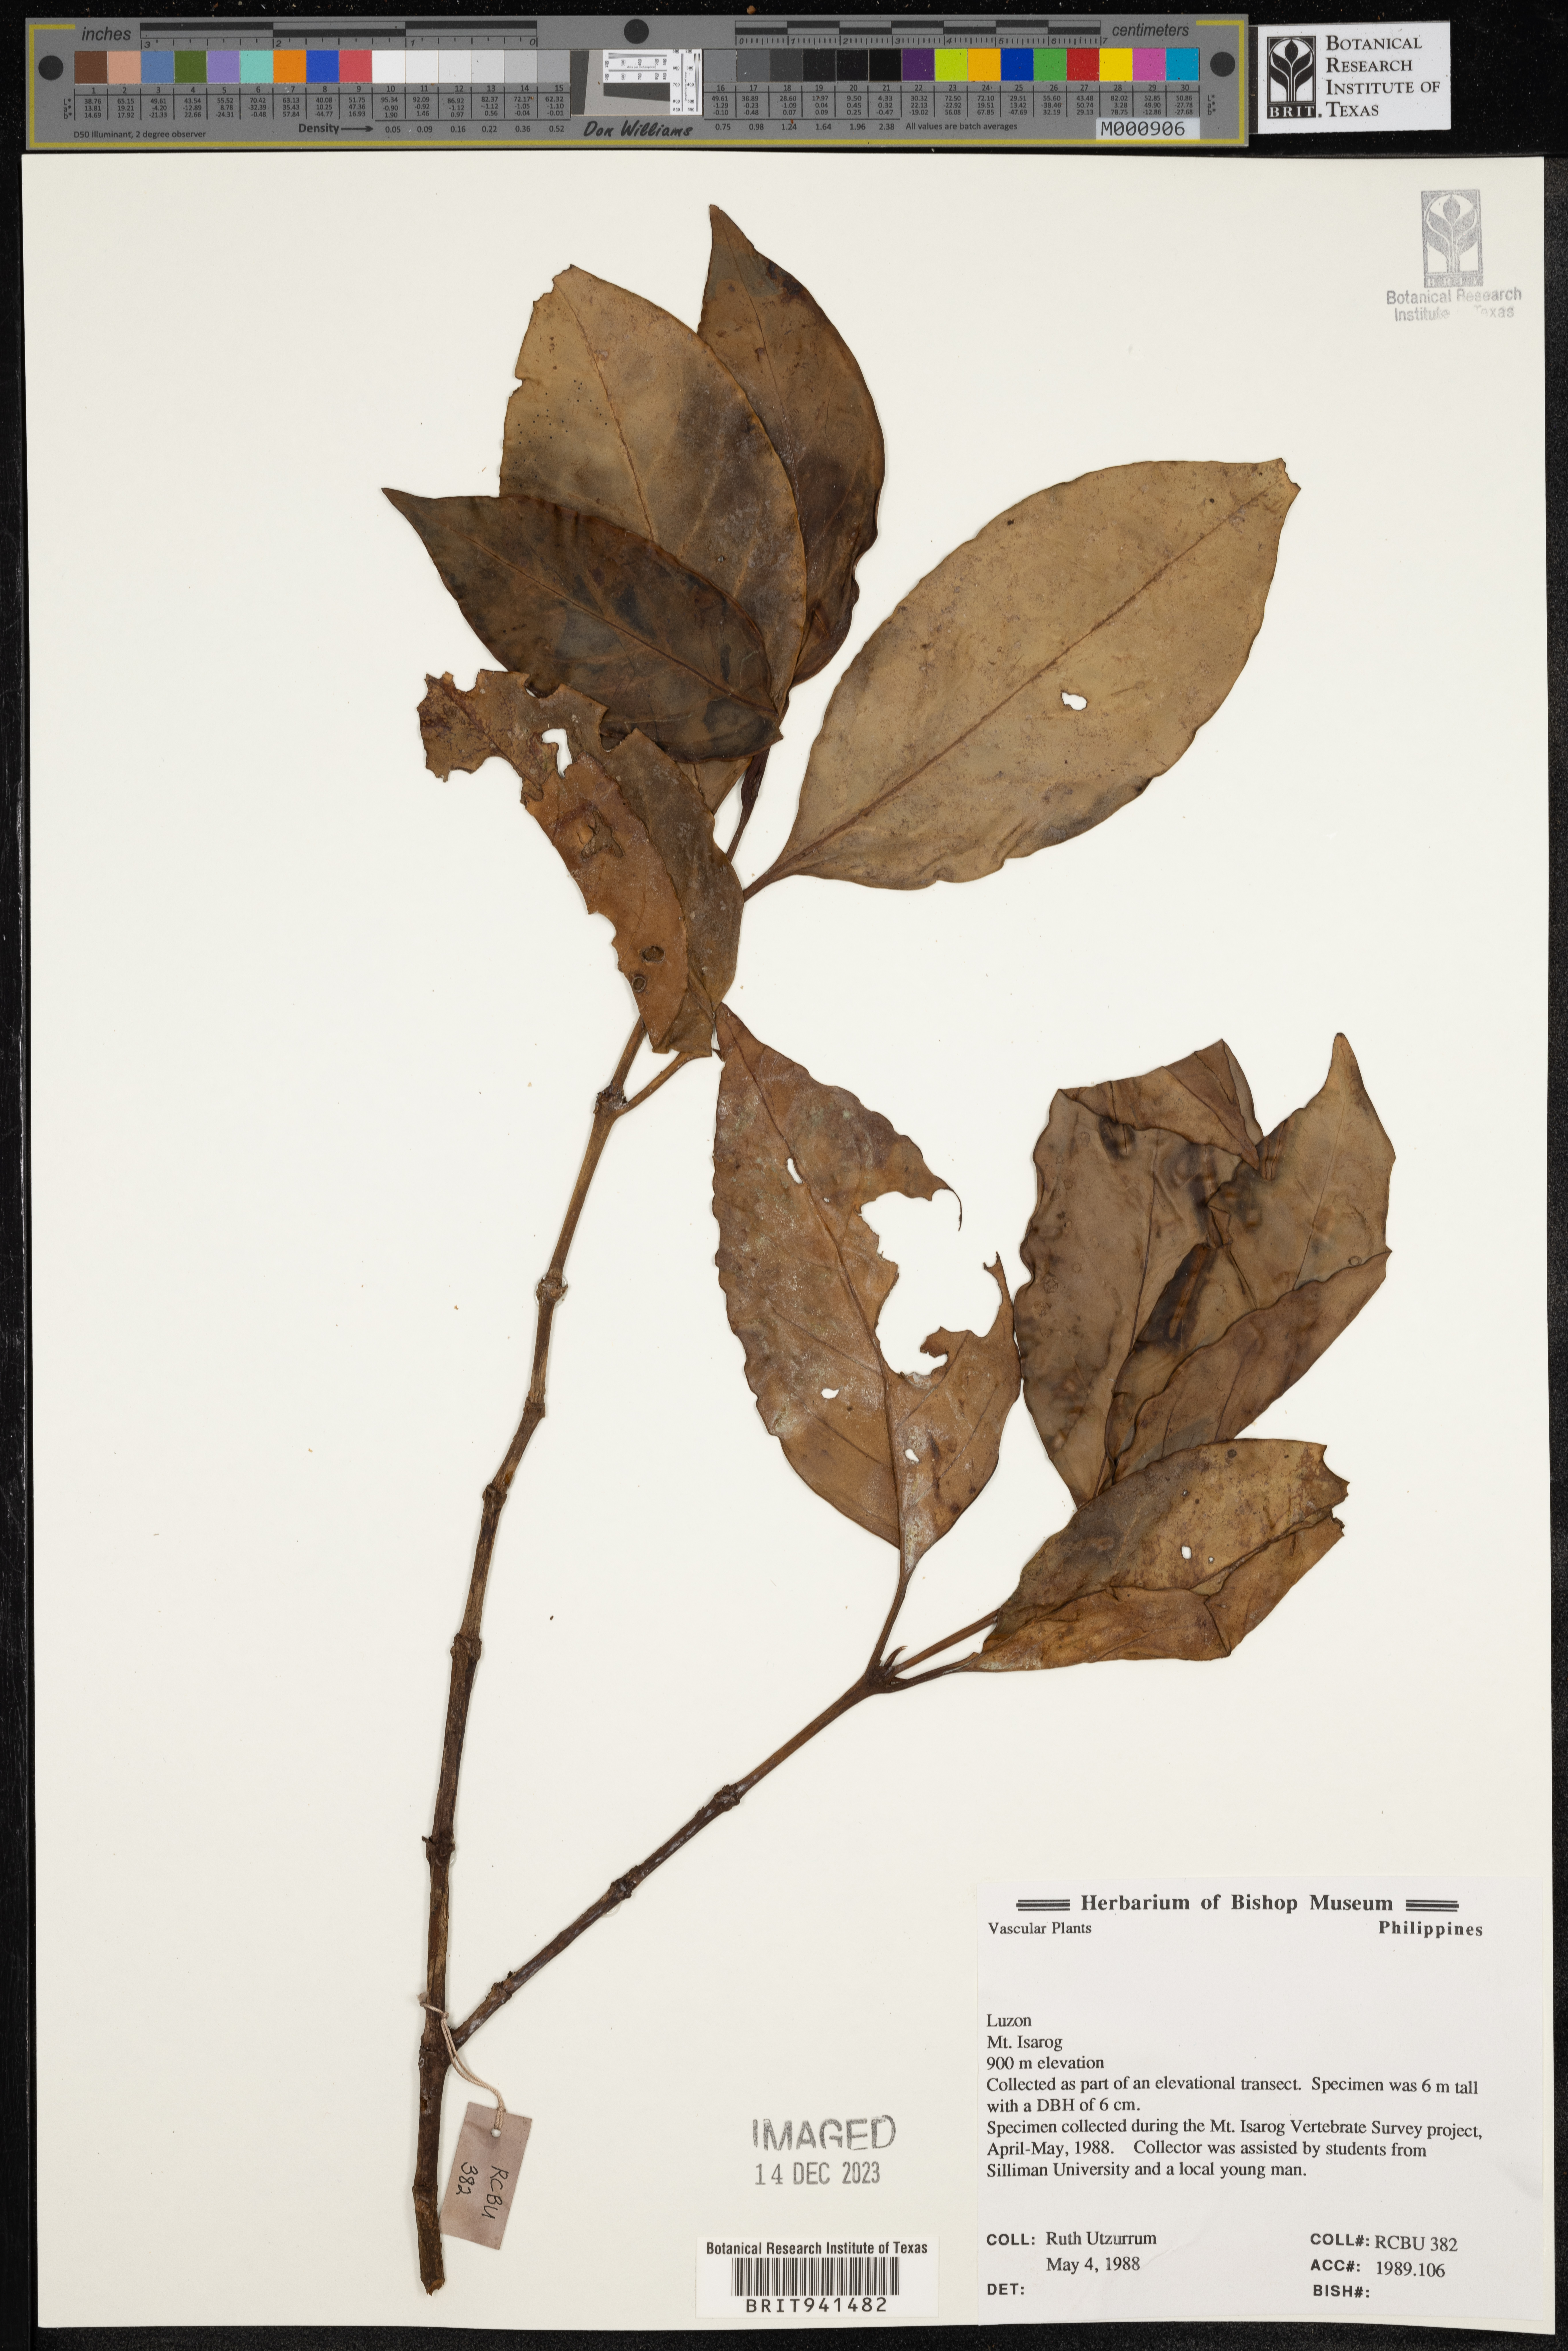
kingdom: Plantae
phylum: Tracheophyta
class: Magnoliopsida
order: Gentianales
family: Rubiaceae
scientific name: Rubiaceae
